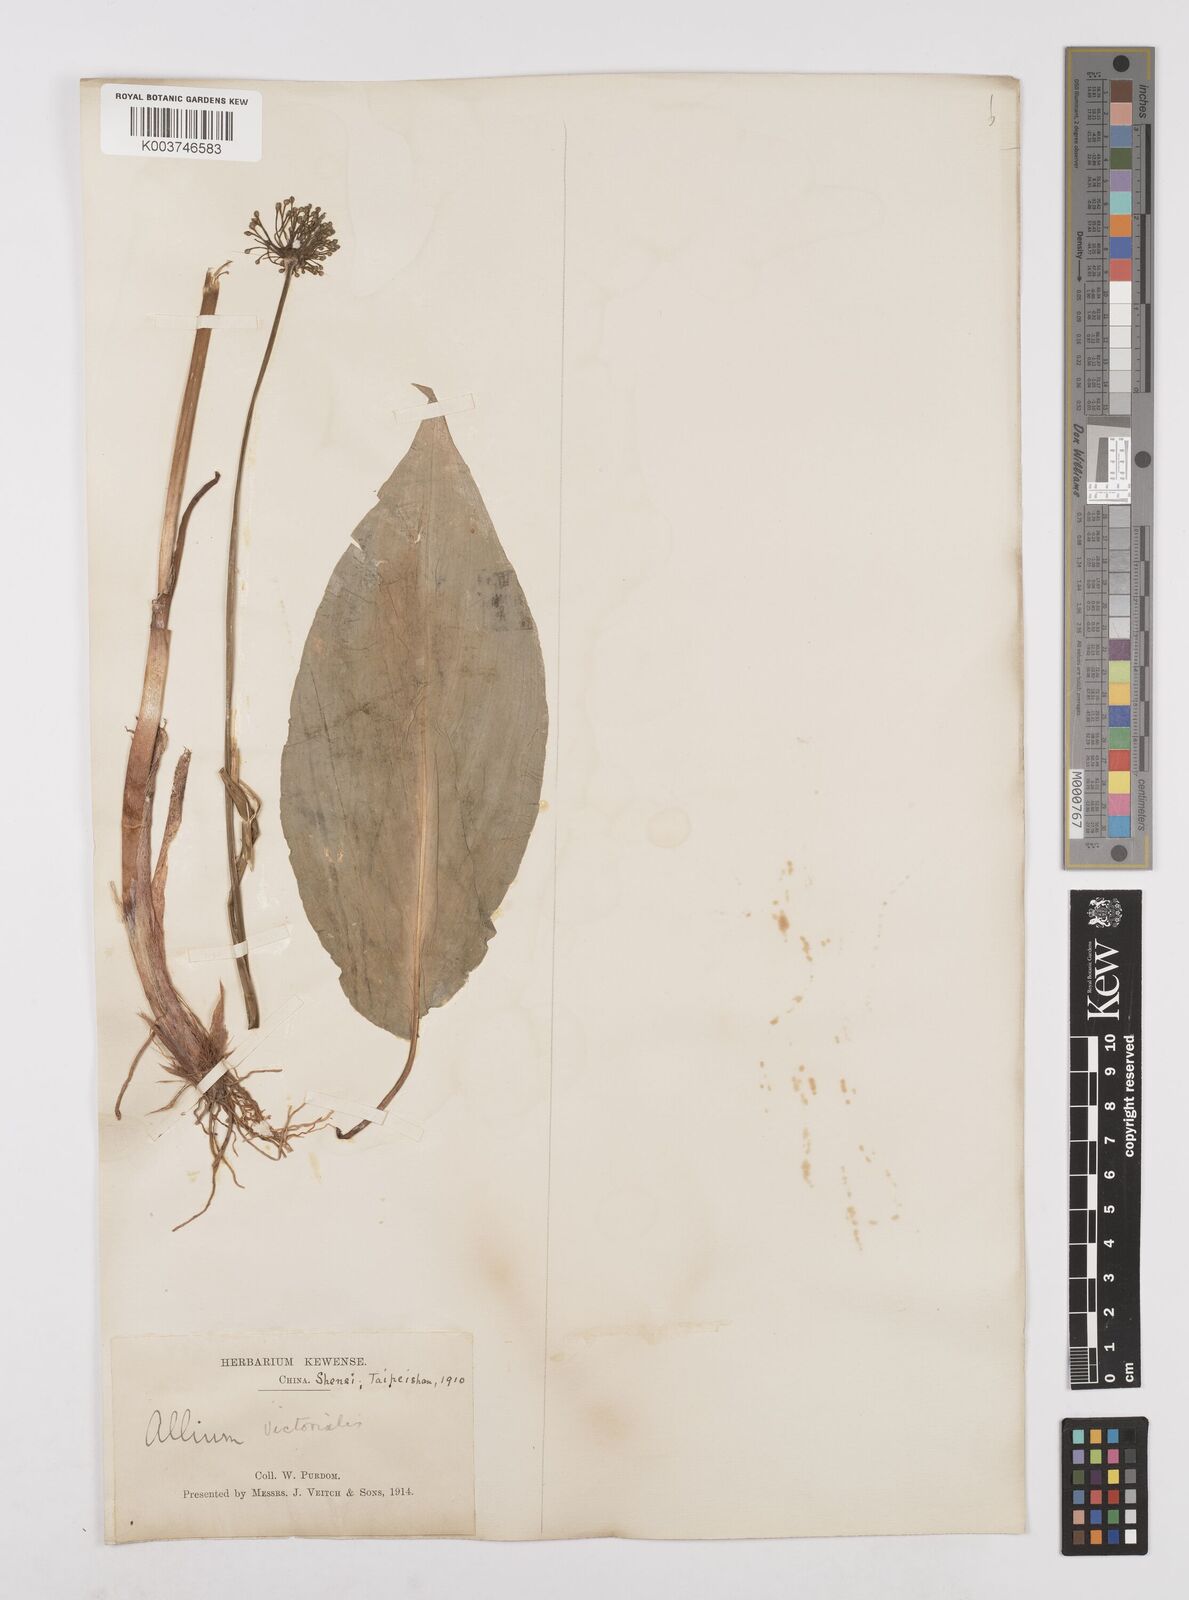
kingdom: Plantae
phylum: Tracheophyta
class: Liliopsida
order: Asparagales
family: Amaryllidaceae
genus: Allium
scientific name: Allium victorialis
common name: Alpine leek
